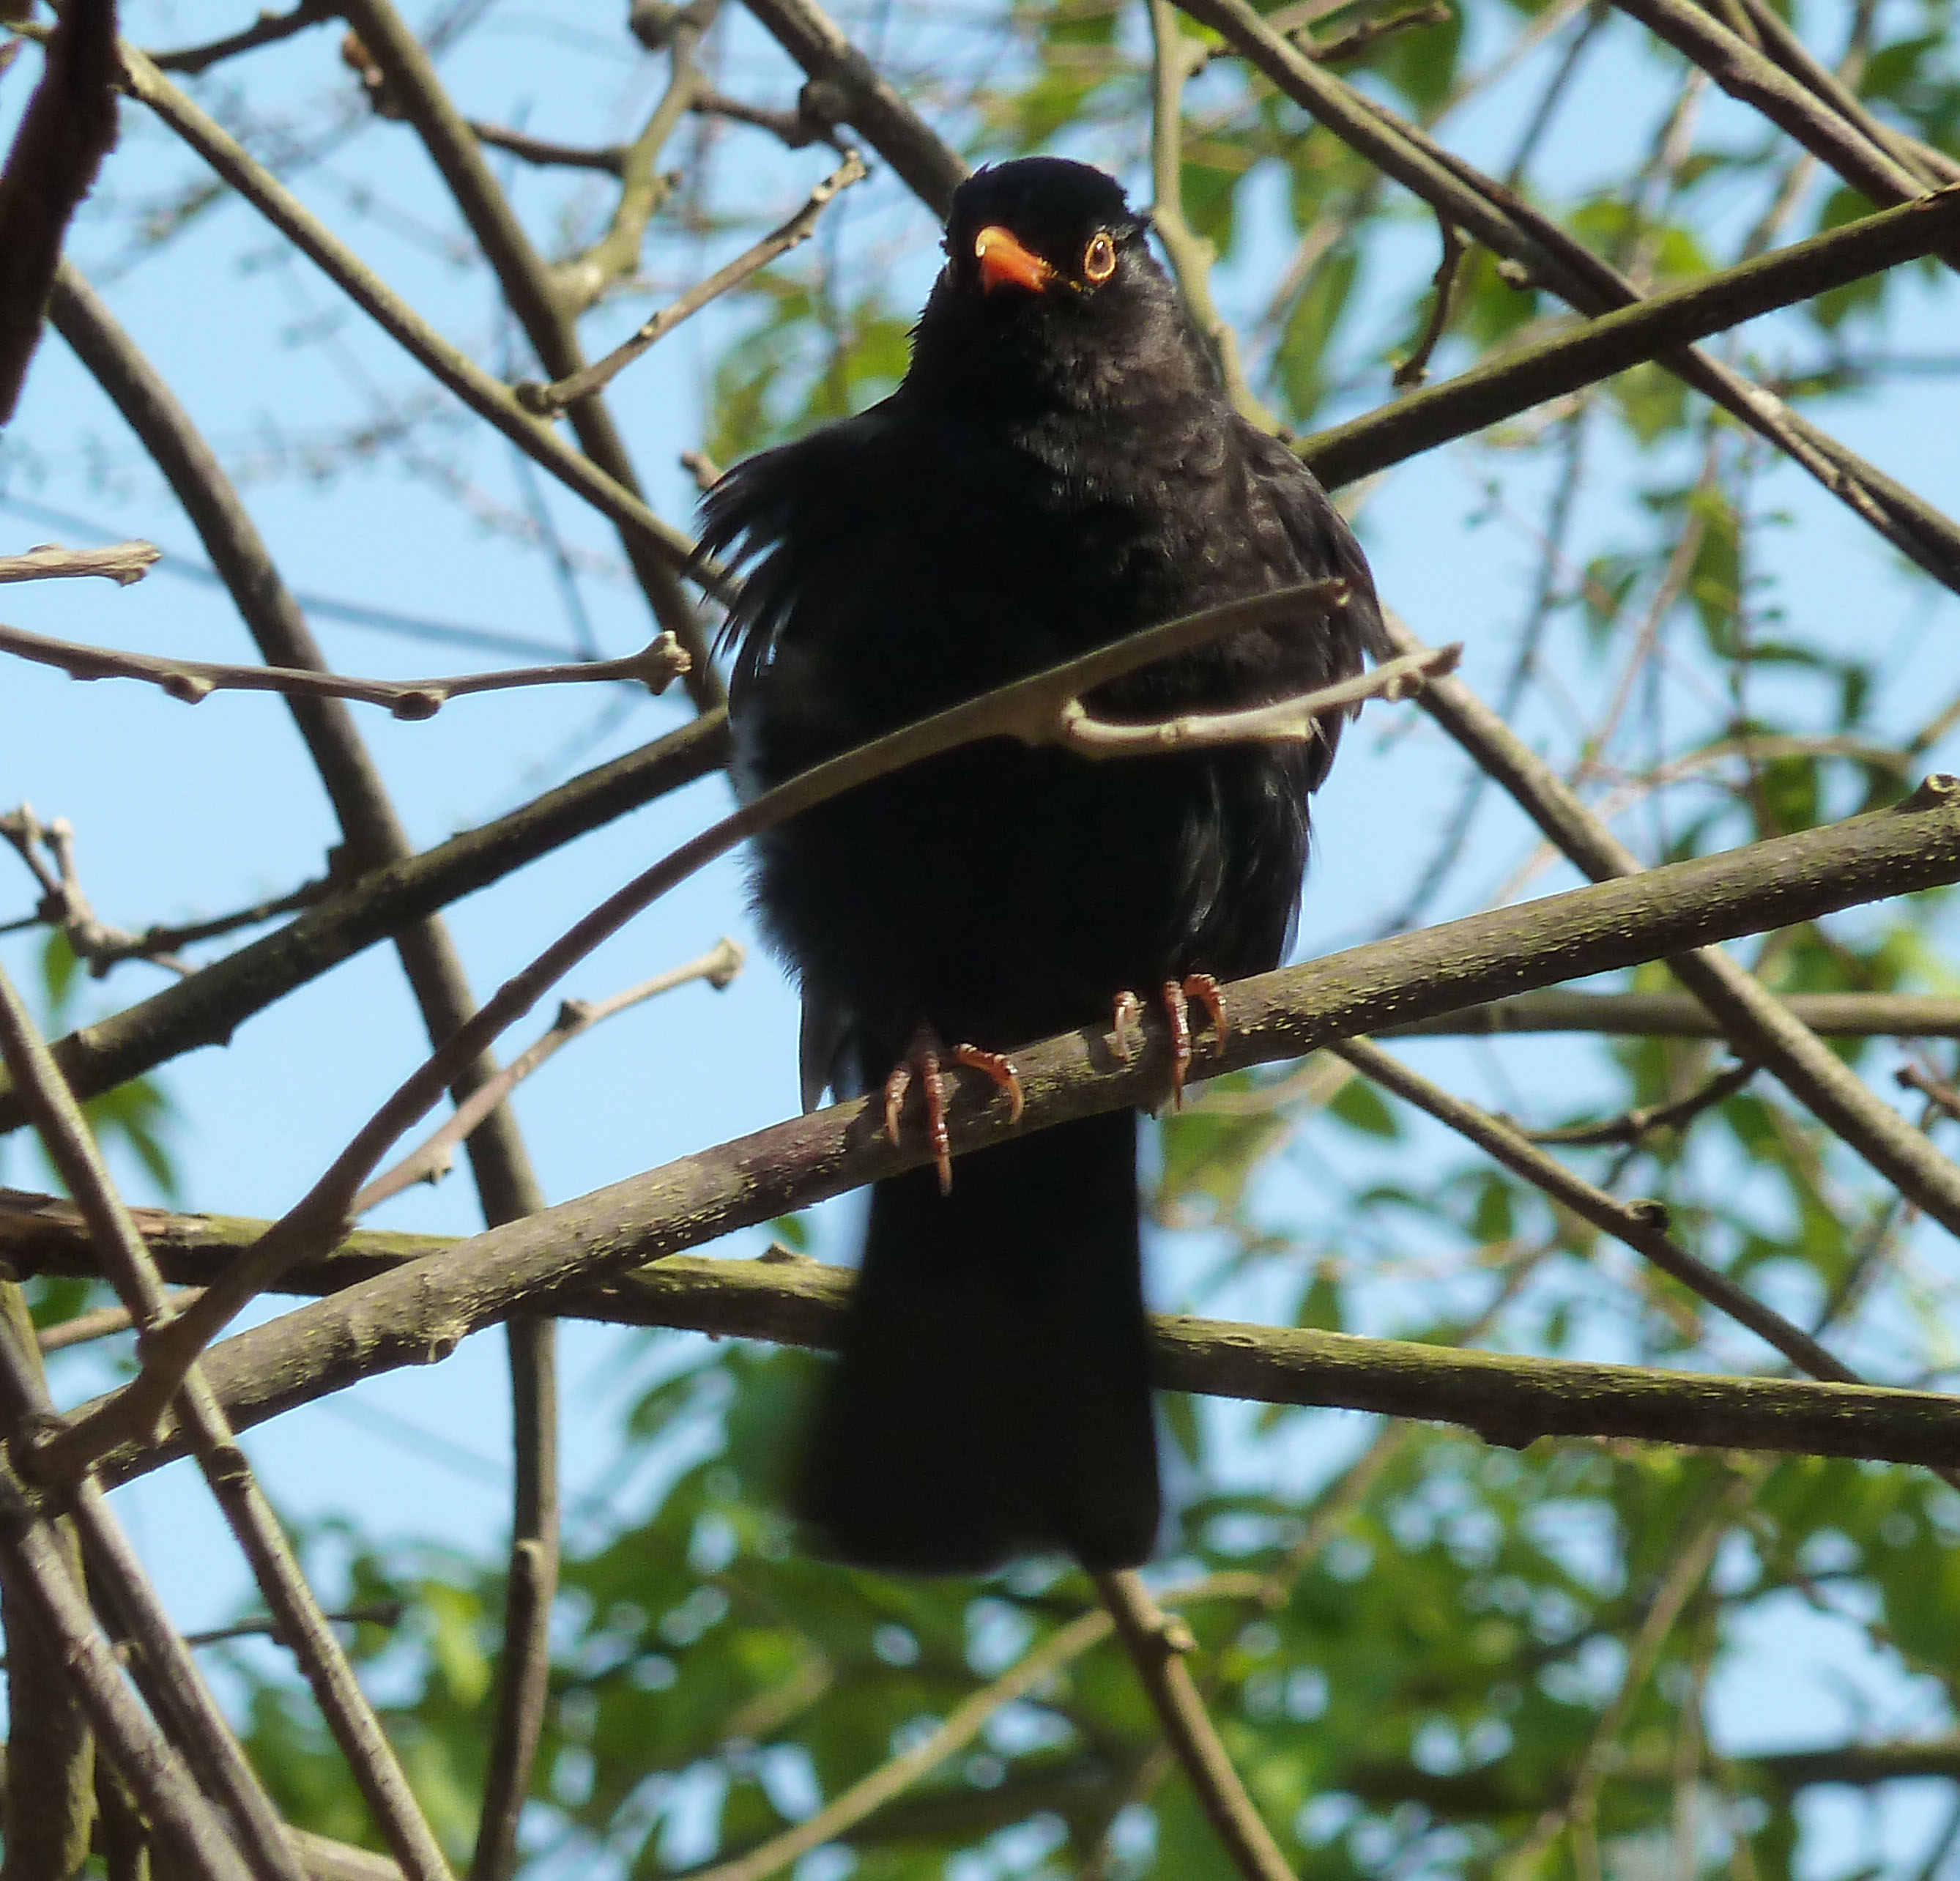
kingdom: Animalia
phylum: Chordata
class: Aves
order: Passeriformes
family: Turdidae
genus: Turdus
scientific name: Turdus merula
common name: Common blackbird
